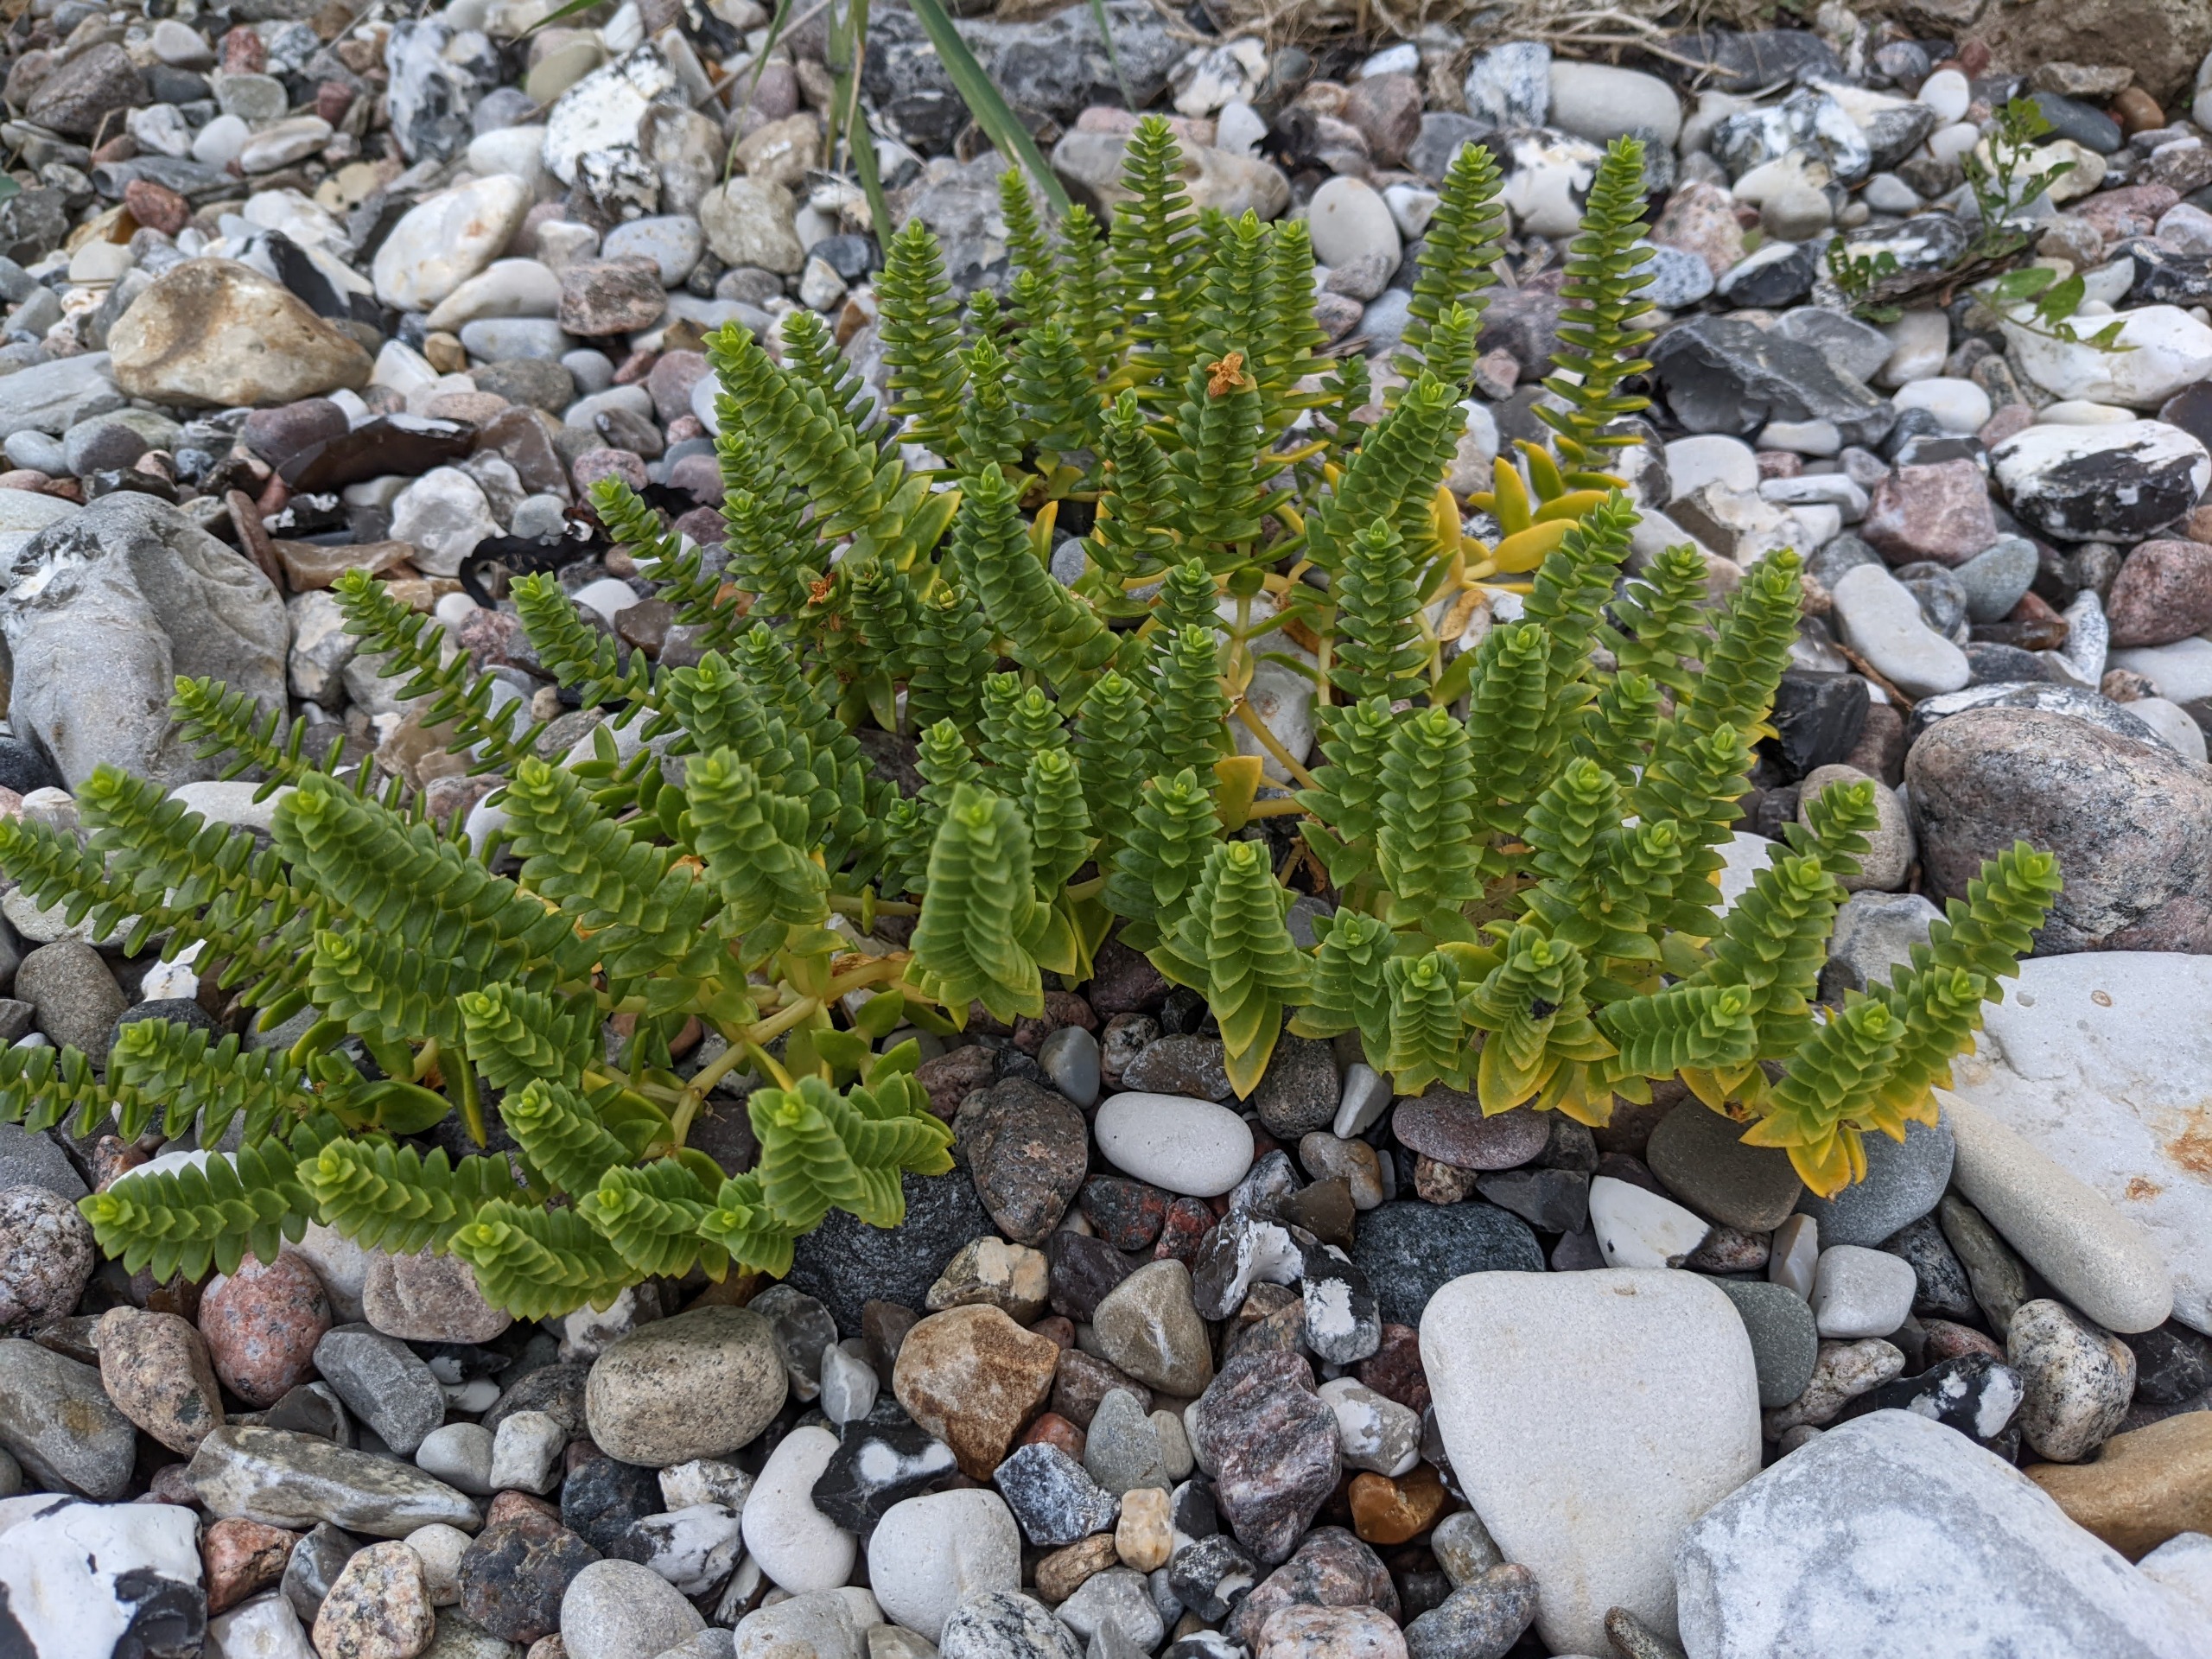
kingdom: Plantae
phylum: Tracheophyta
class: Magnoliopsida
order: Caryophyllales
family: Caryophyllaceae
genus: Honckenya
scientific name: Honckenya peploides
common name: Strandarve
